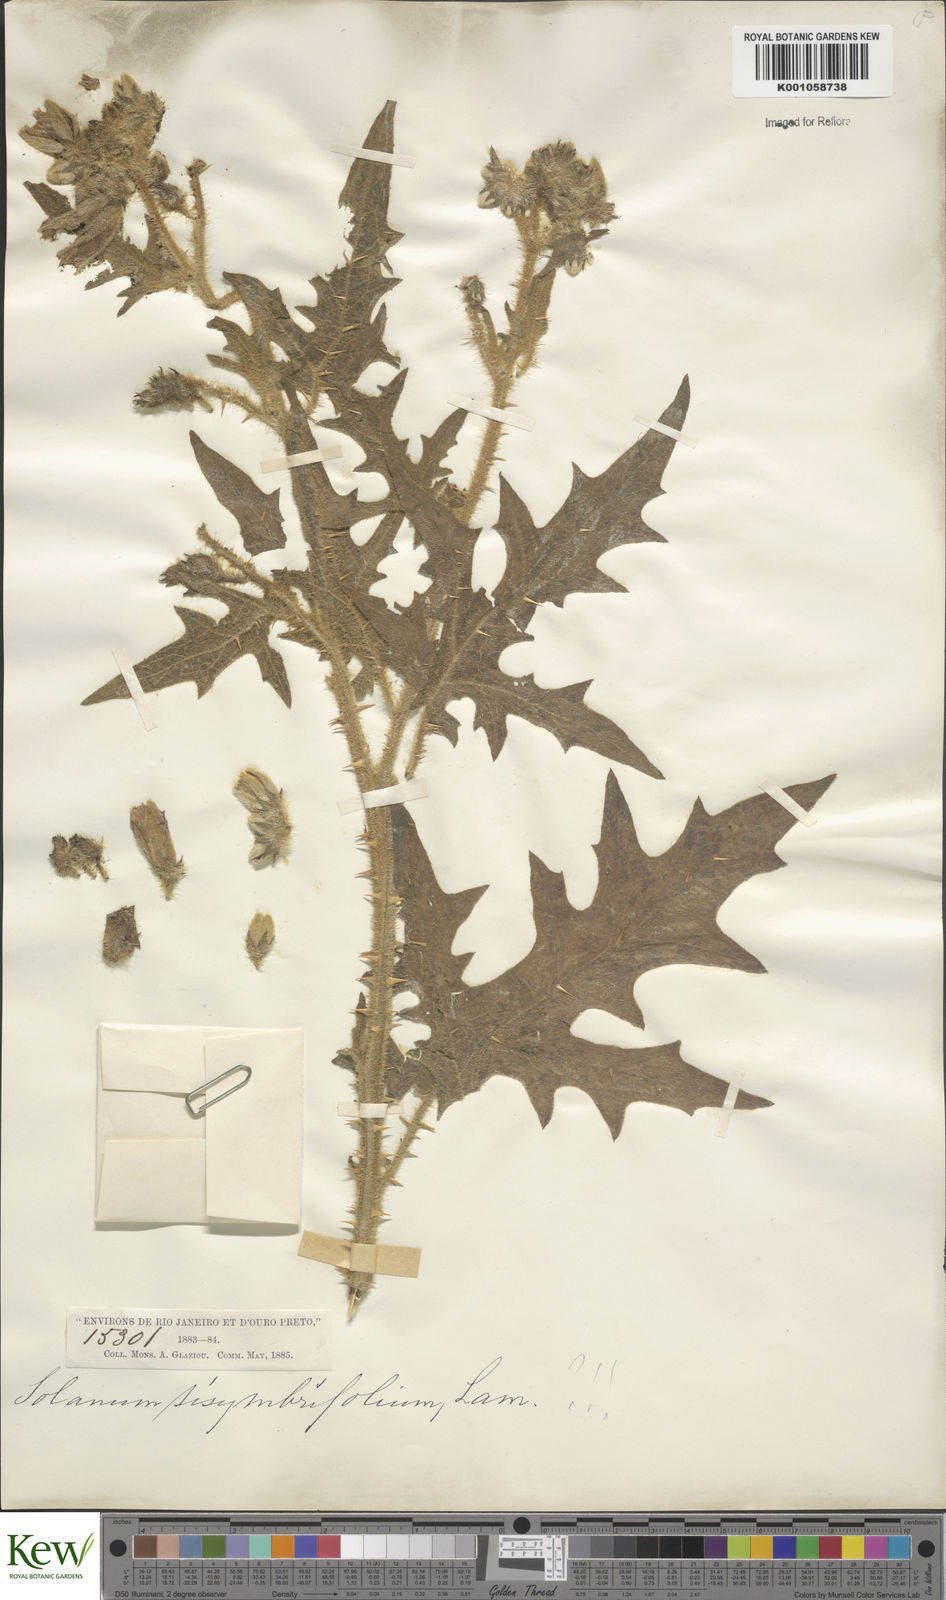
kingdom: Plantae
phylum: Tracheophyta
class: Magnoliopsida
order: Solanales
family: Solanaceae
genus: Solanum
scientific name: Solanum sisymbriifolium
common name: Red buffalo-bur
